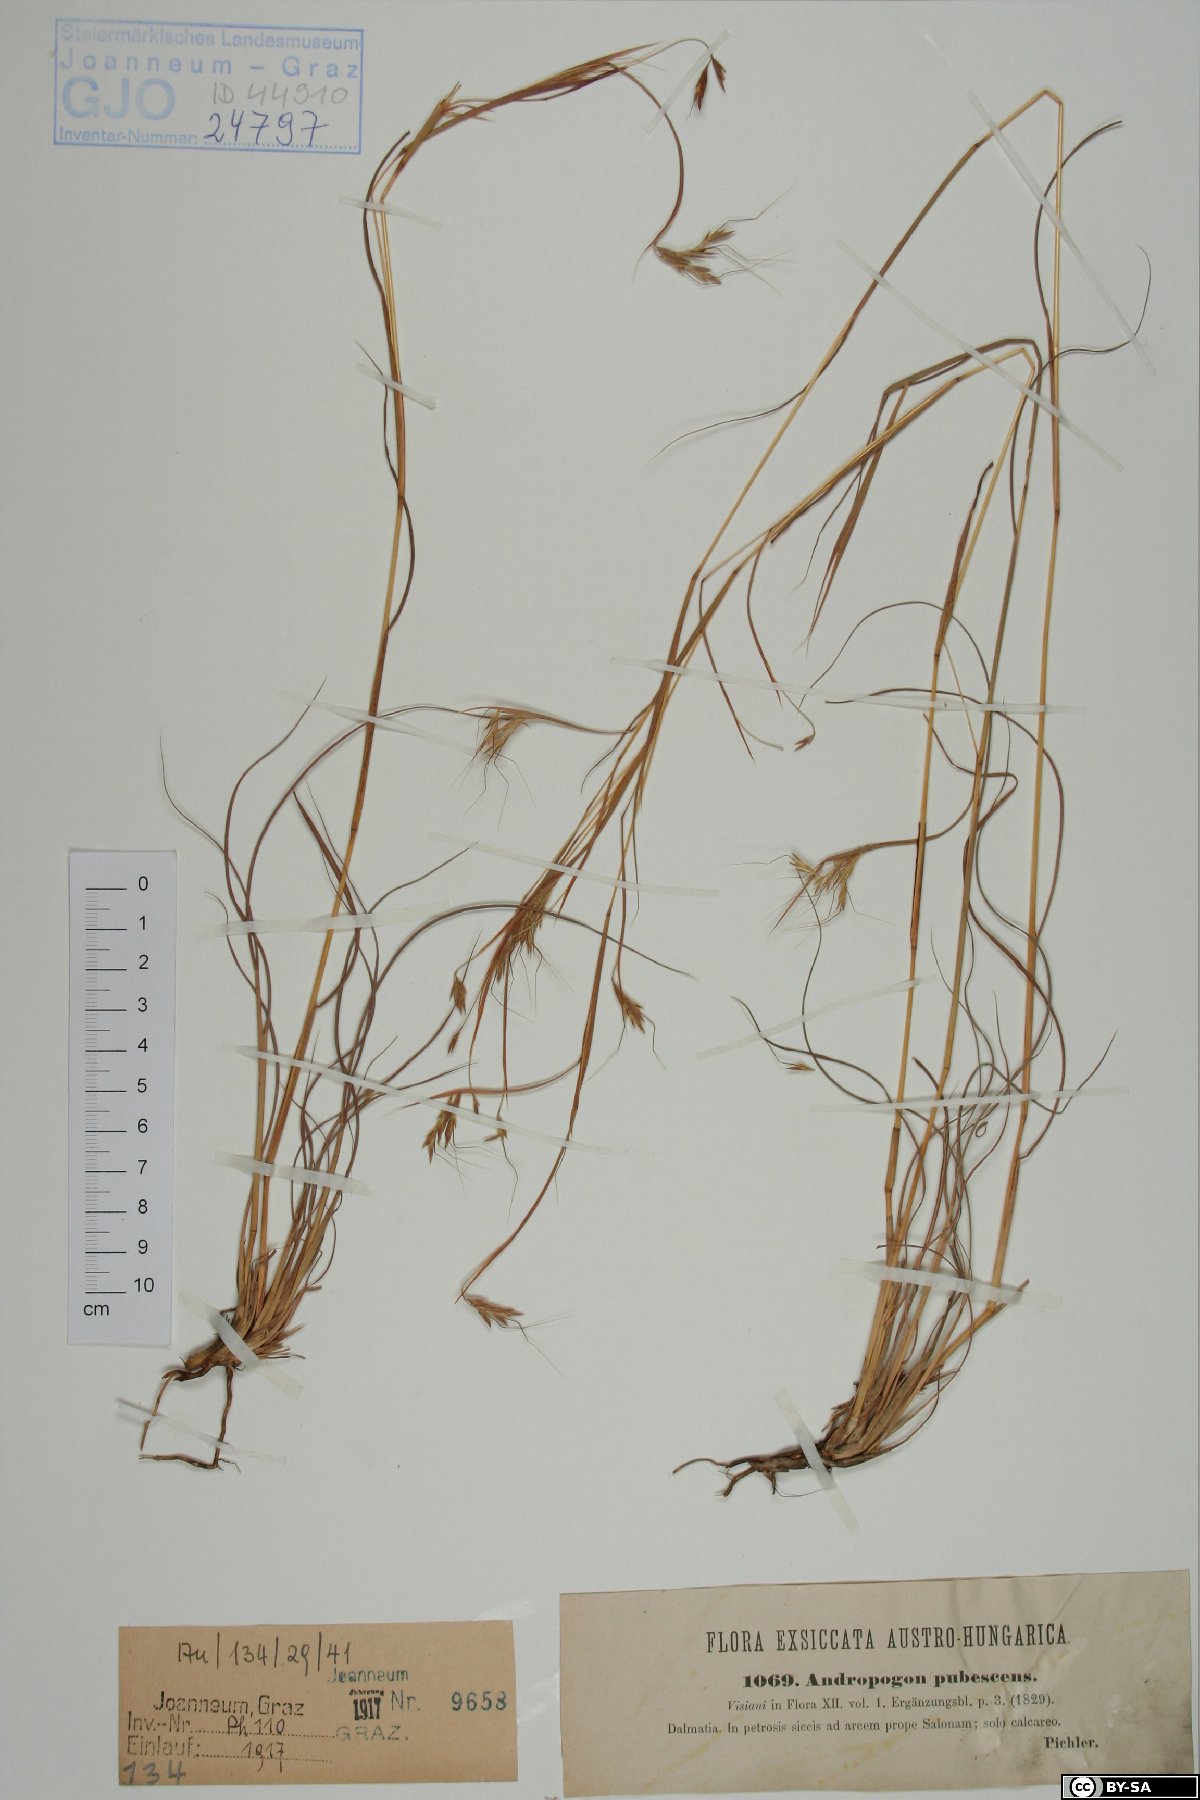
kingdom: Plantae
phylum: Tracheophyta
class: Liliopsida
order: Poales
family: Poaceae
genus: Hyparrhenia
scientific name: Hyparrhenia hirta
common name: Thatching grass
